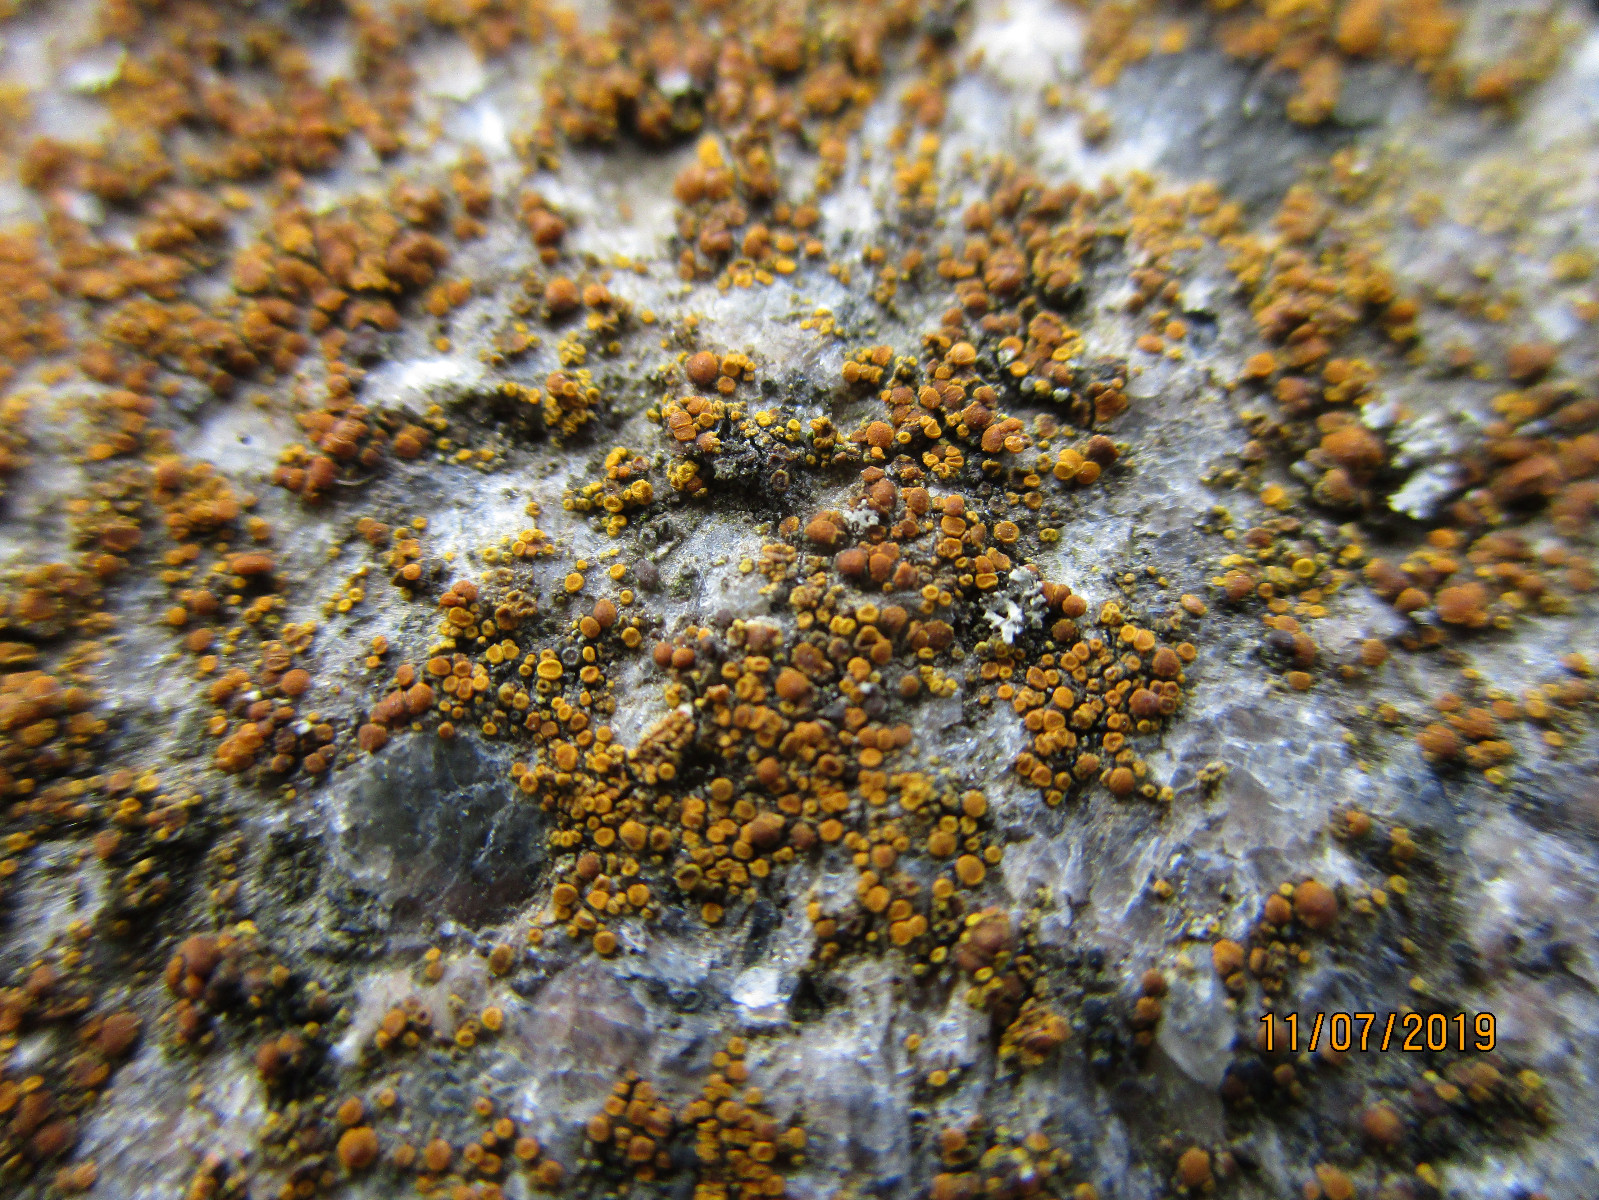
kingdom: Fungi
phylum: Ascomycota
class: Lecanoromycetes
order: Teloschistales
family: Teloschistaceae
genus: Calogaya
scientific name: Calogaya arnoldii
